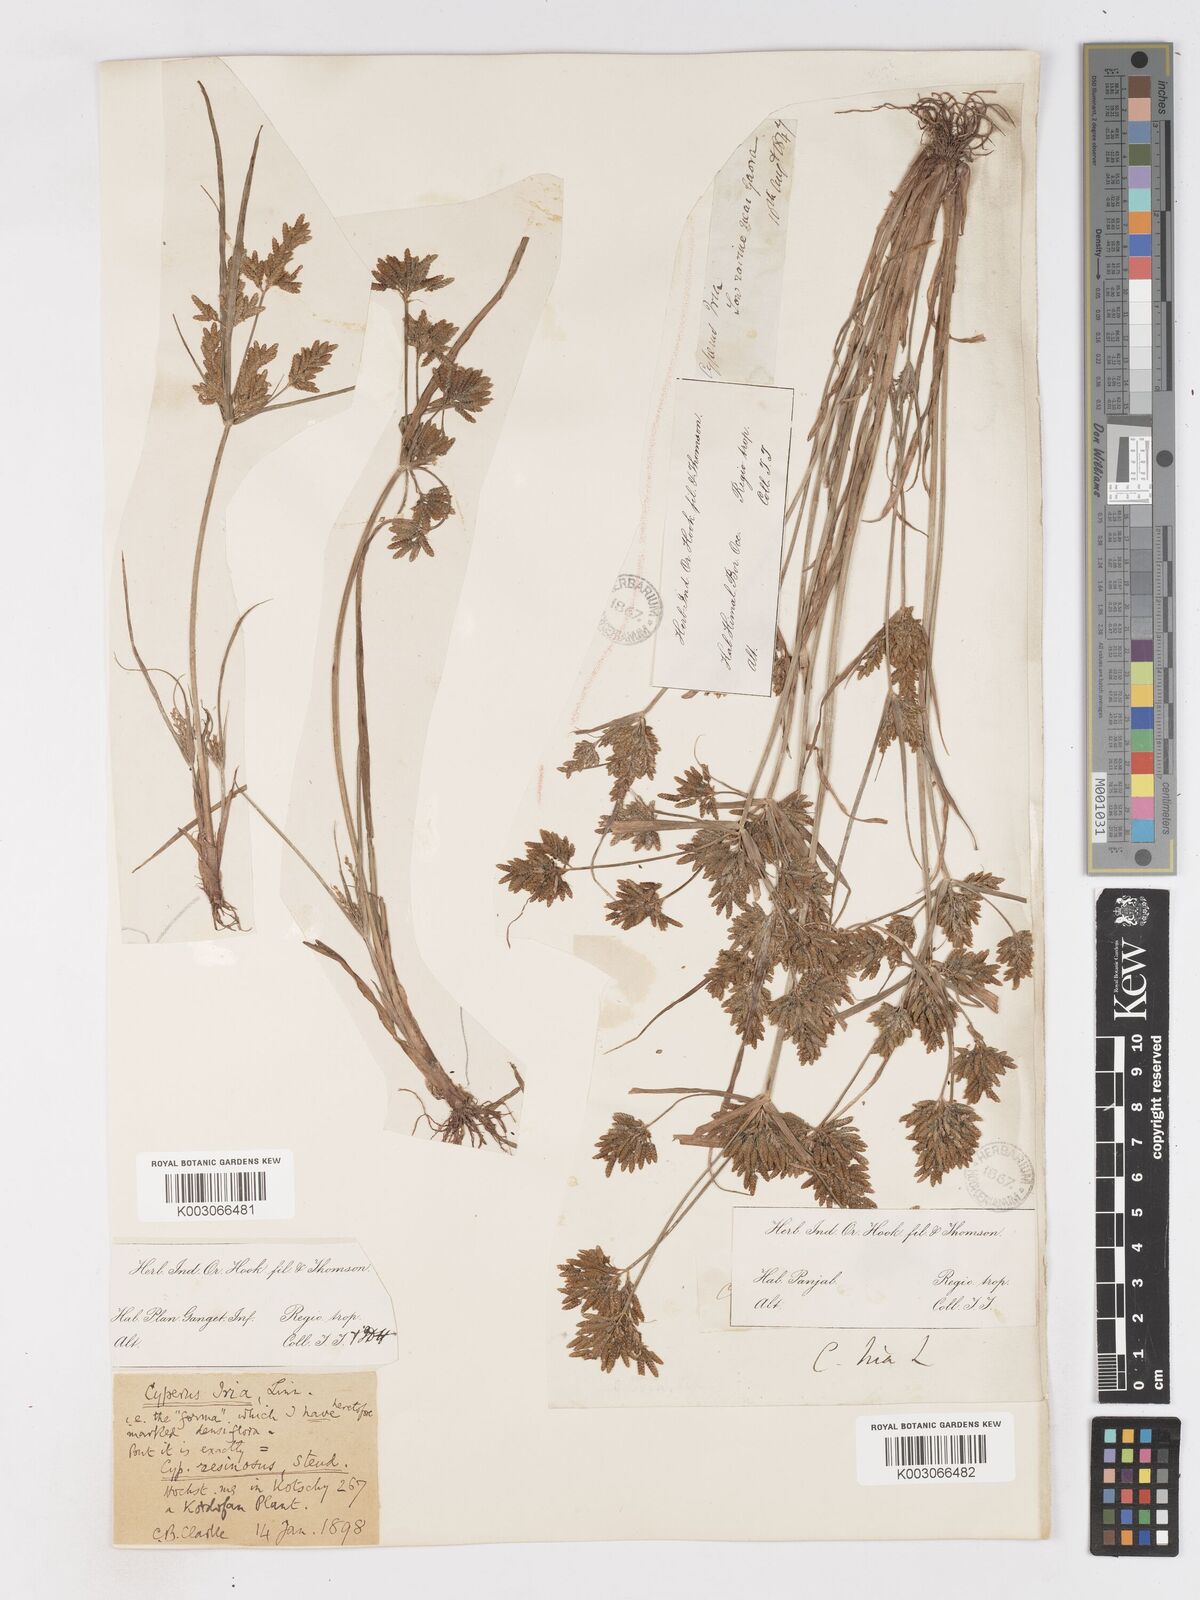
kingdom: Plantae
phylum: Tracheophyta
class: Liliopsida
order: Poales
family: Cyperaceae
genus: Cyperus
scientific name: Cyperus iria
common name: Ricefield flatsedge
